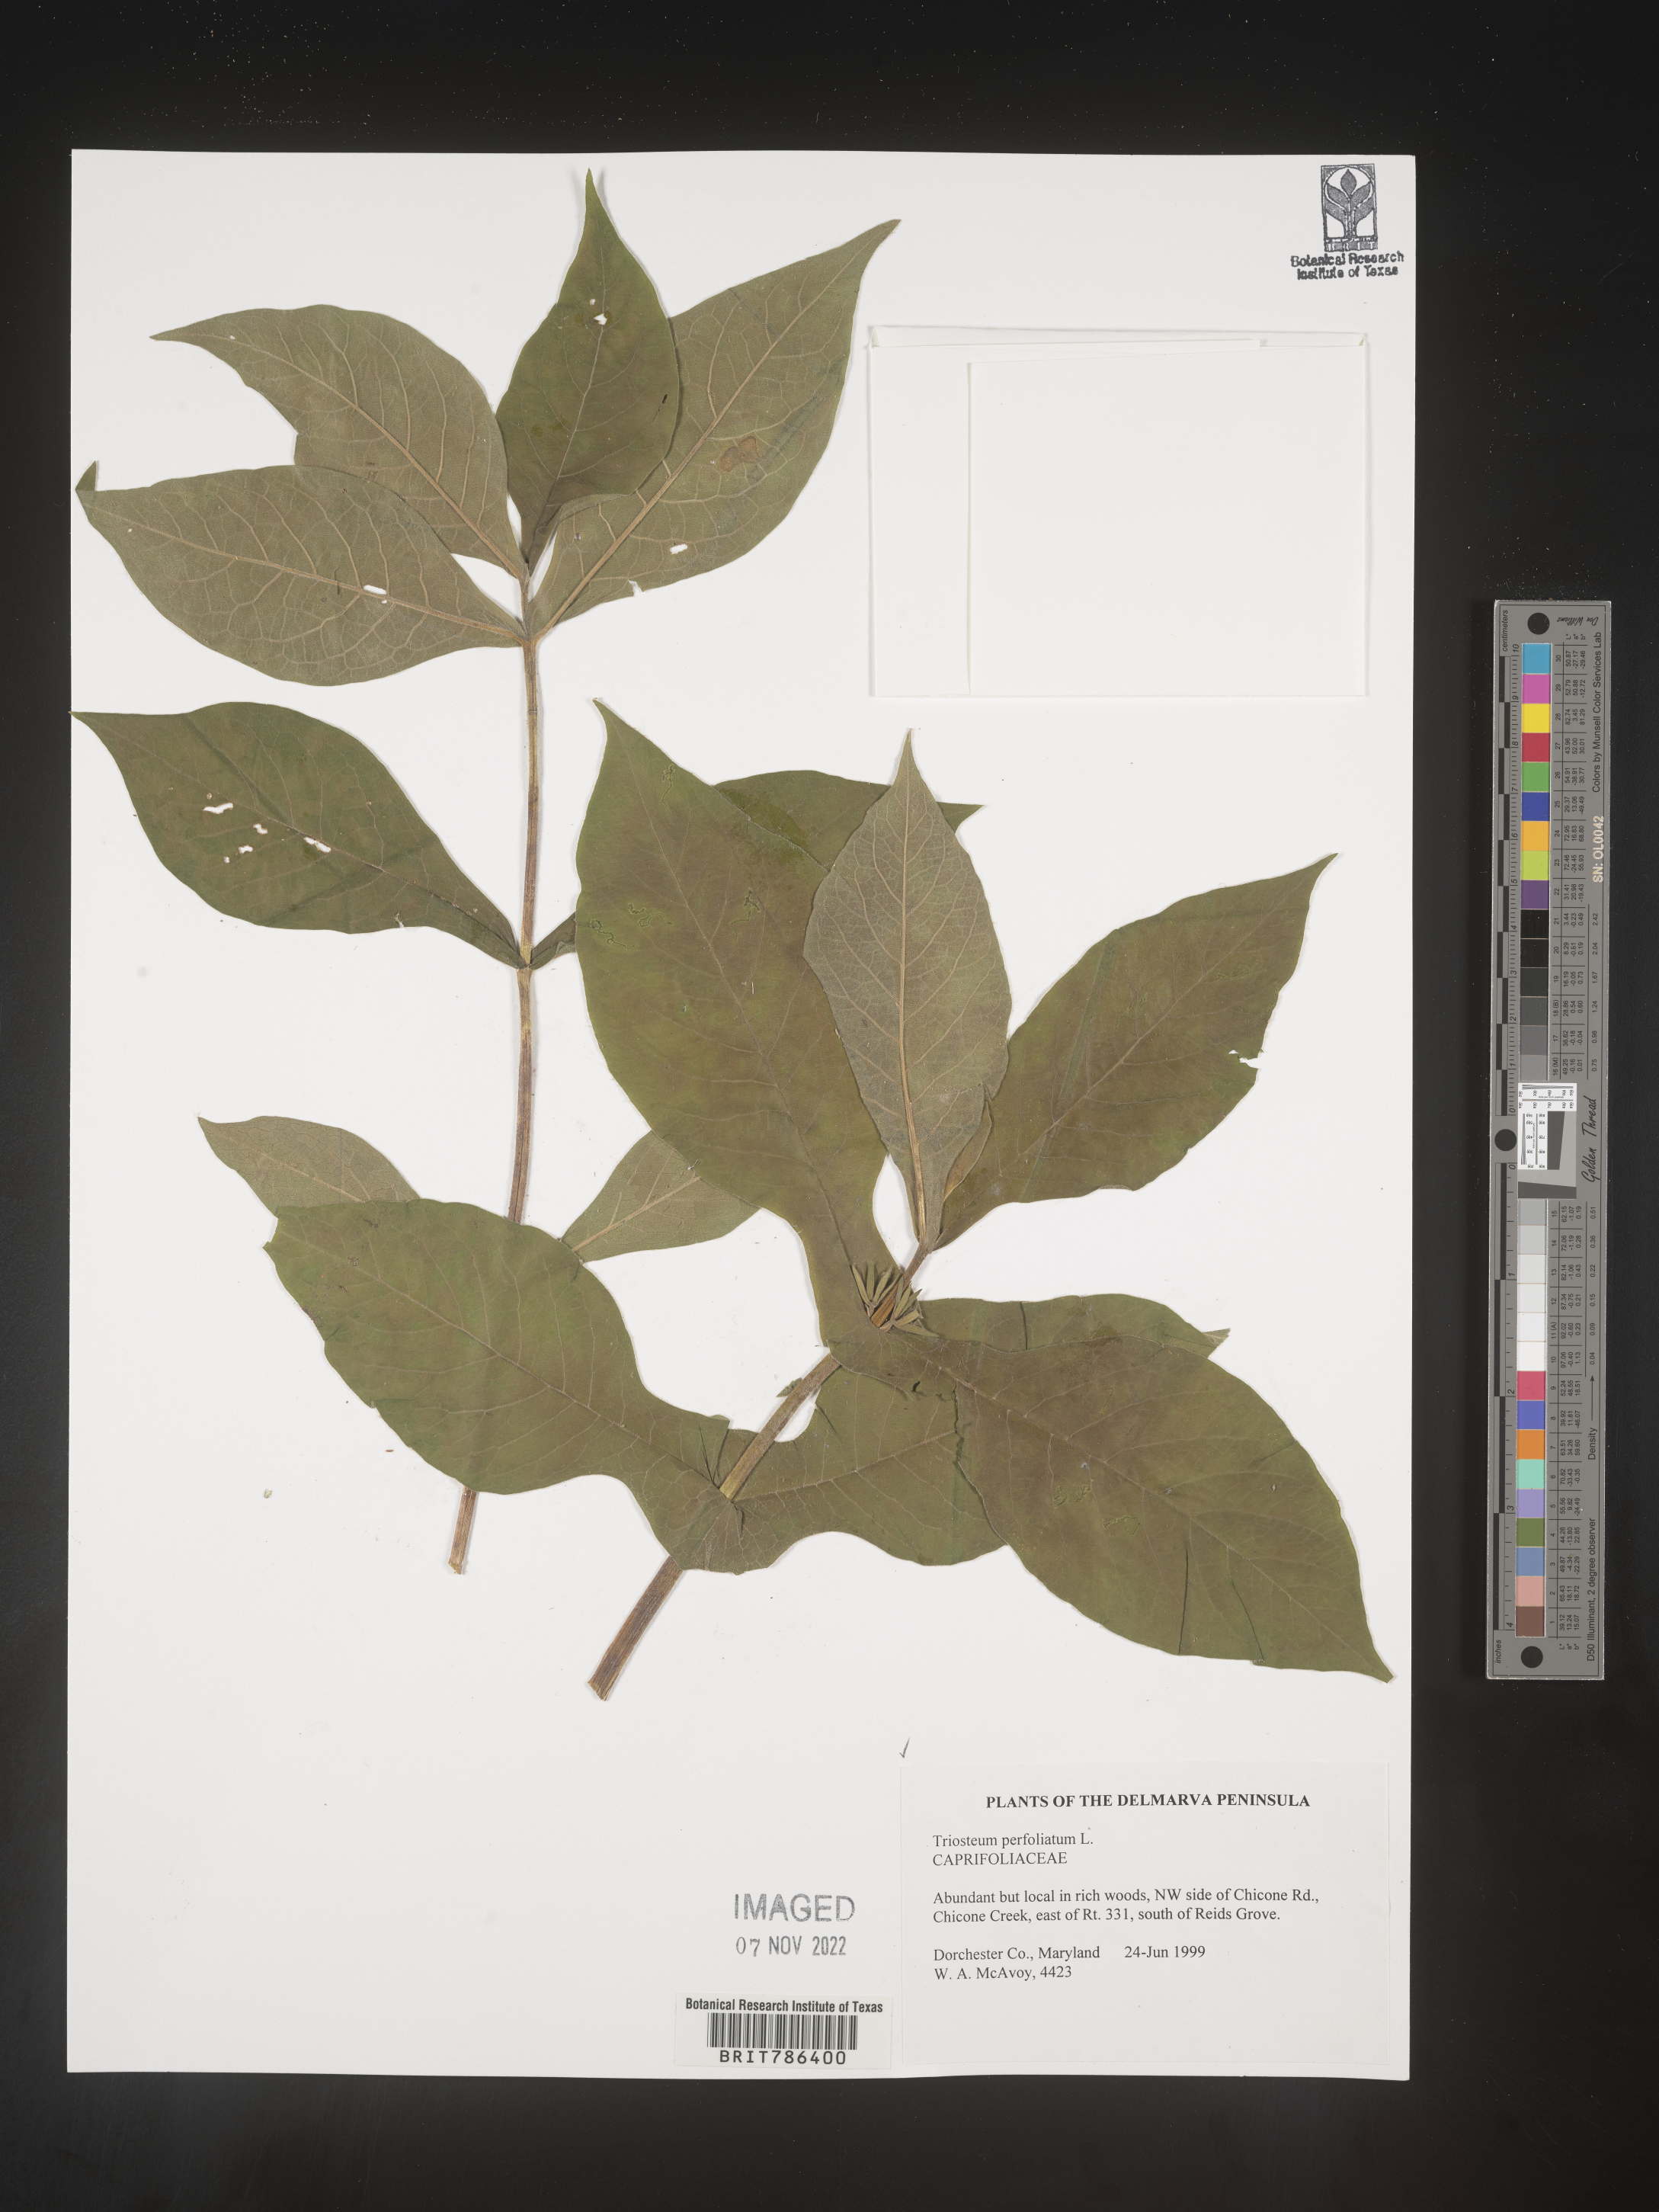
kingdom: Plantae
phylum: Tracheophyta
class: Magnoliopsida
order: Dipsacales
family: Caprifoliaceae
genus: Triosteum
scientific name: Triosteum perfoliatum
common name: Common horse-gentian
